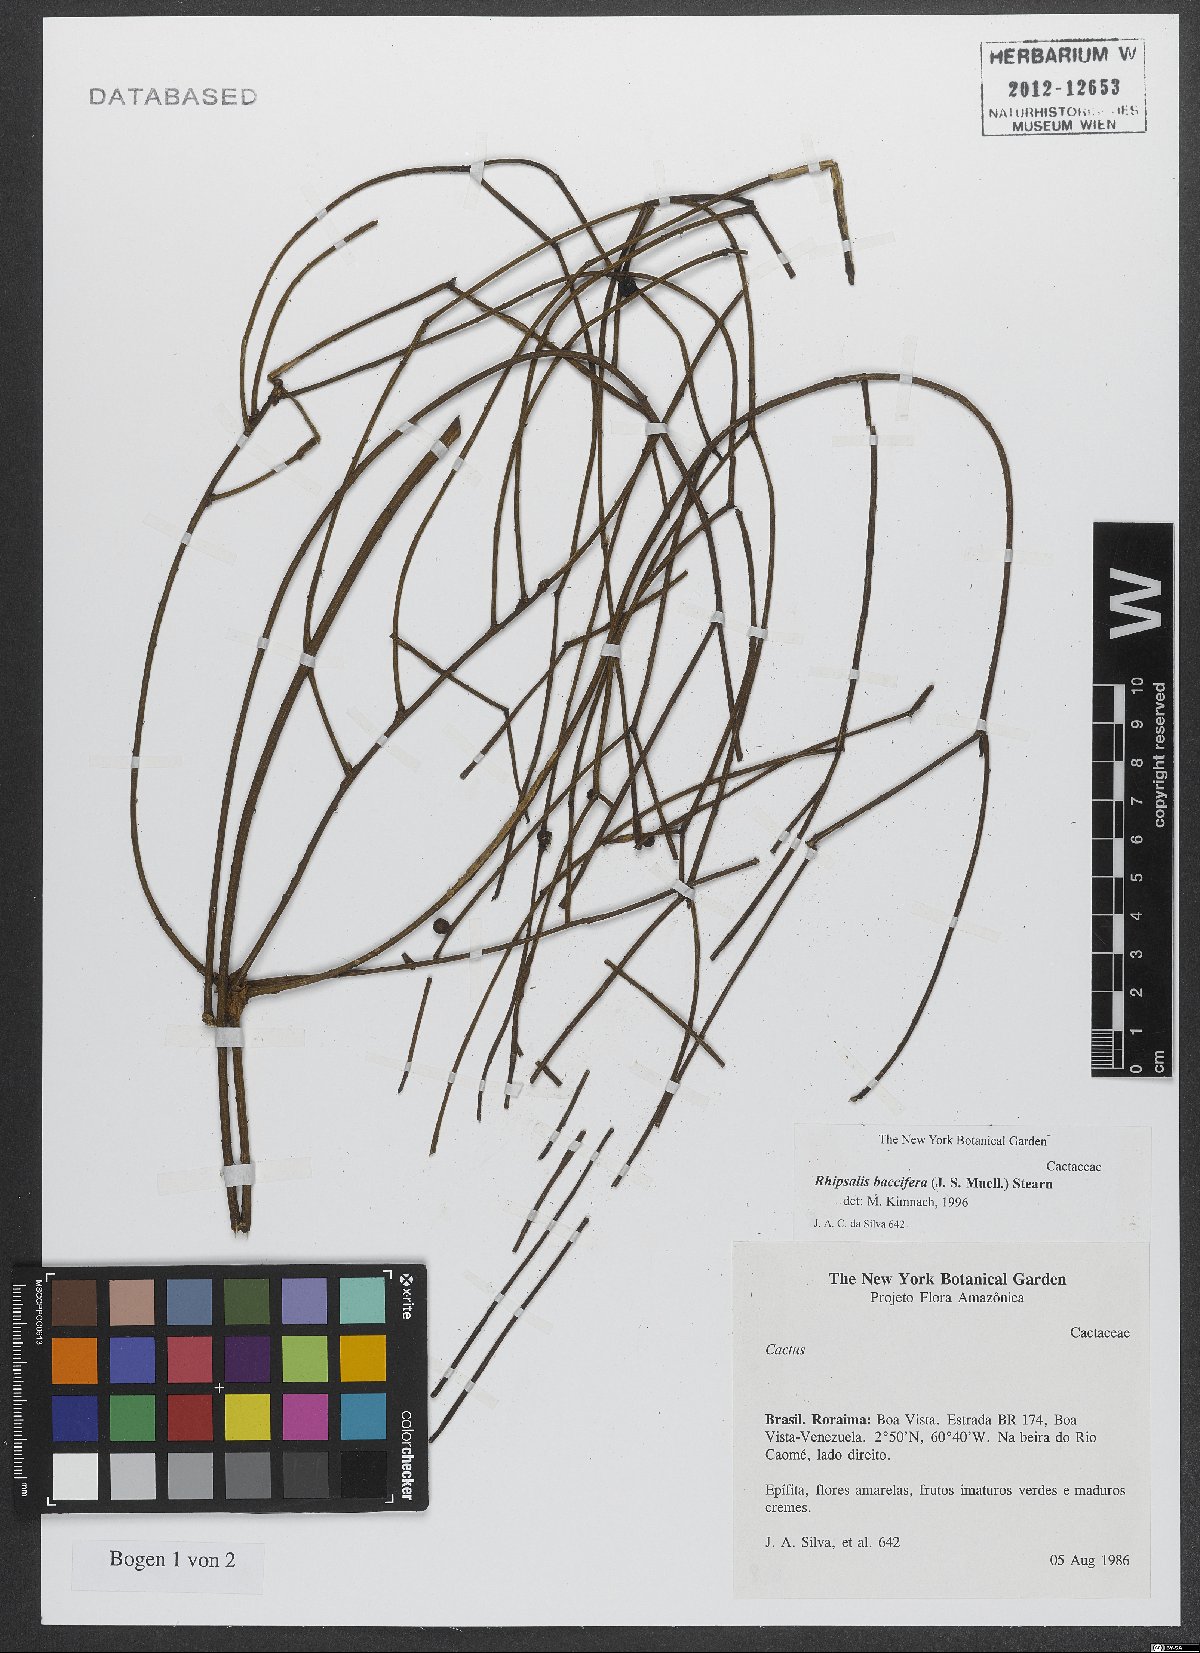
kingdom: Plantae
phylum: Tracheophyta
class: Magnoliopsida
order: Caryophyllales
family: Cactaceae
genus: Rhipsalis
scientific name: Rhipsalis baccifera
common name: Mistletoe cactus
